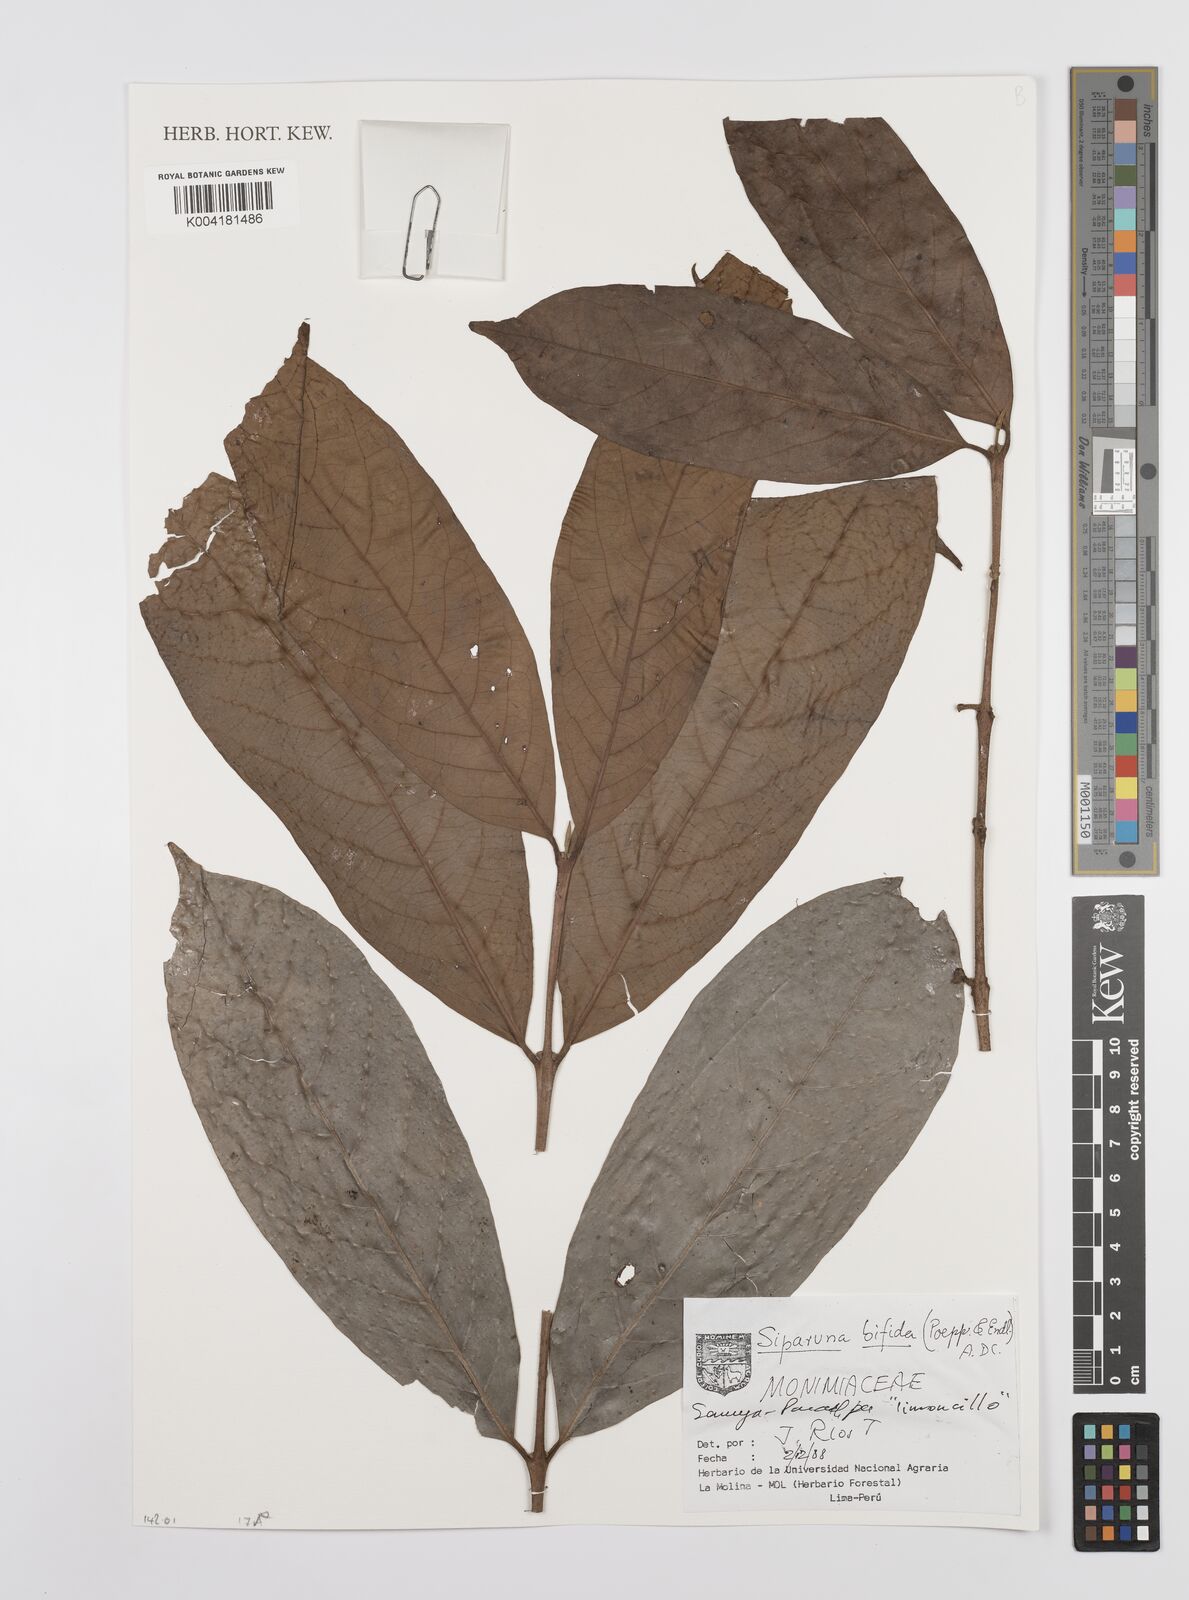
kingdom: Plantae
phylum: Tracheophyta
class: Magnoliopsida
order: Laurales
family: Siparunaceae
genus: Siparuna
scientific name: Siparuna bifida
